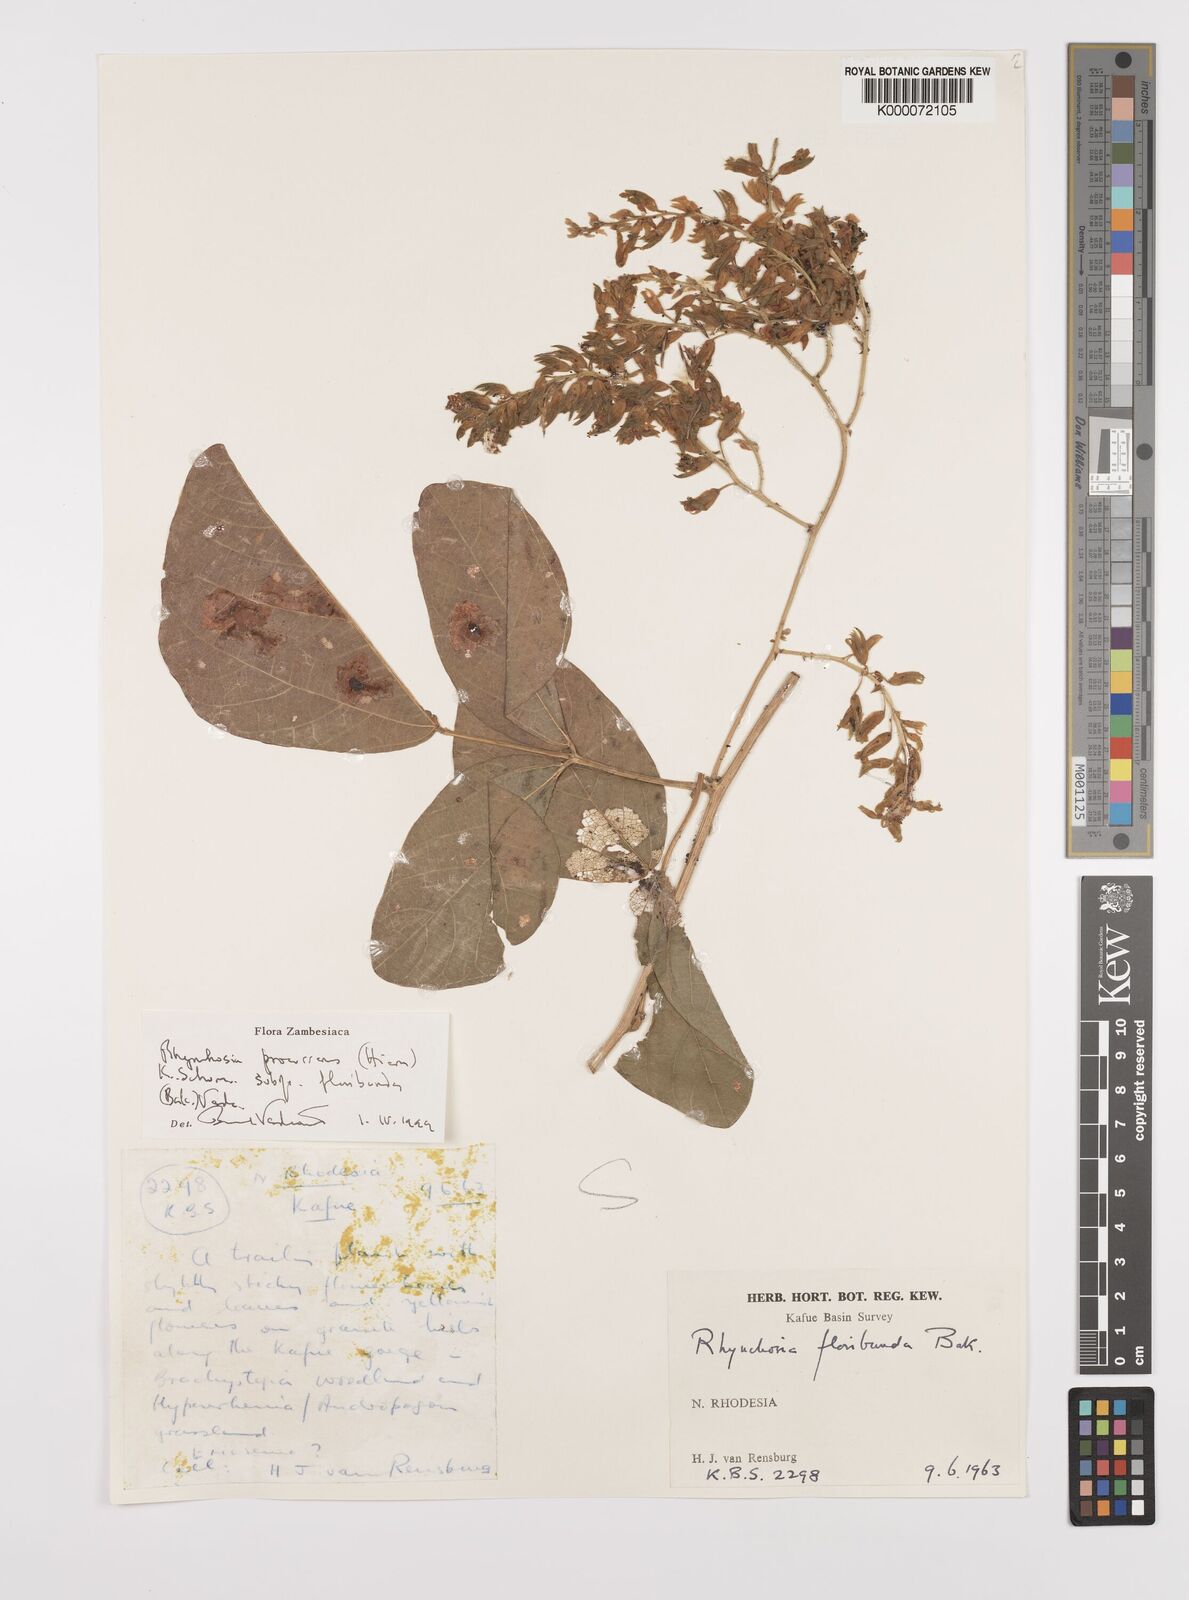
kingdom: Plantae
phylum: Tracheophyta
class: Magnoliopsida
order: Fabales
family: Fabaceae
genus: Rhynchosia
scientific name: Rhynchosia procurrens
